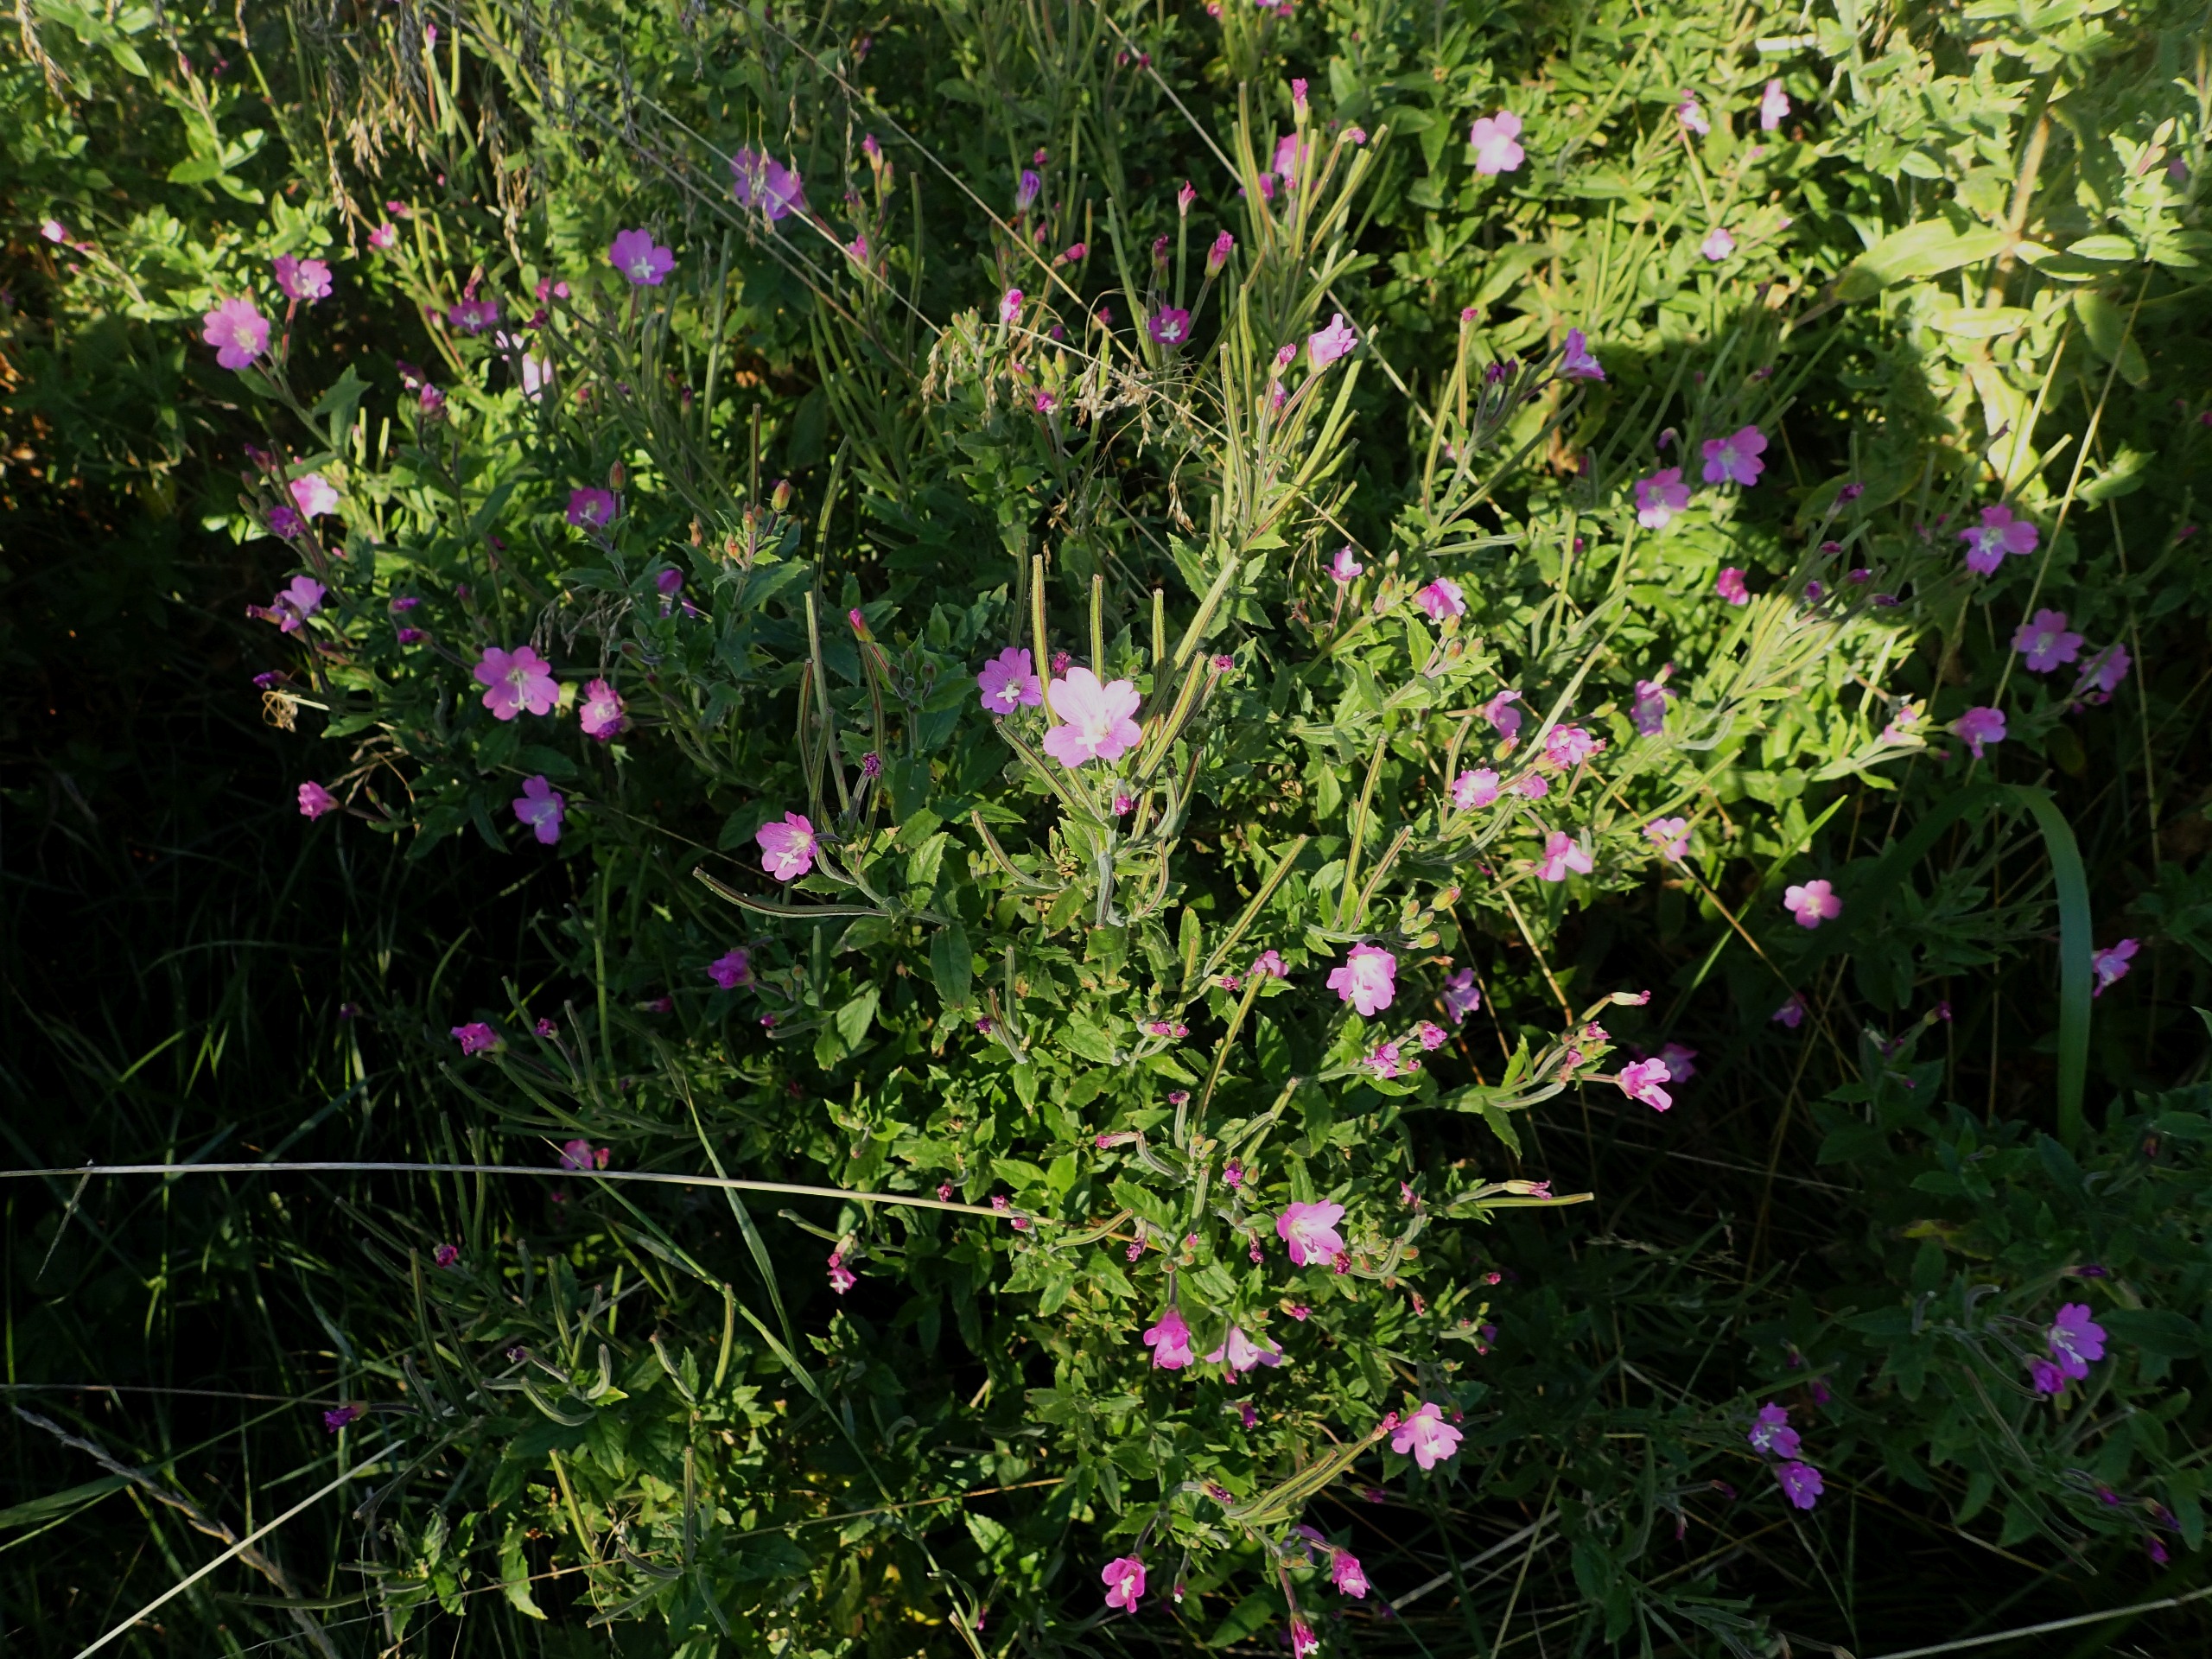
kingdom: Plantae
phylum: Tracheophyta
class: Magnoliopsida
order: Myrtales
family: Onagraceae
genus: Epilobium
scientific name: Epilobium hirsutum
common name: Lådden dueurt
